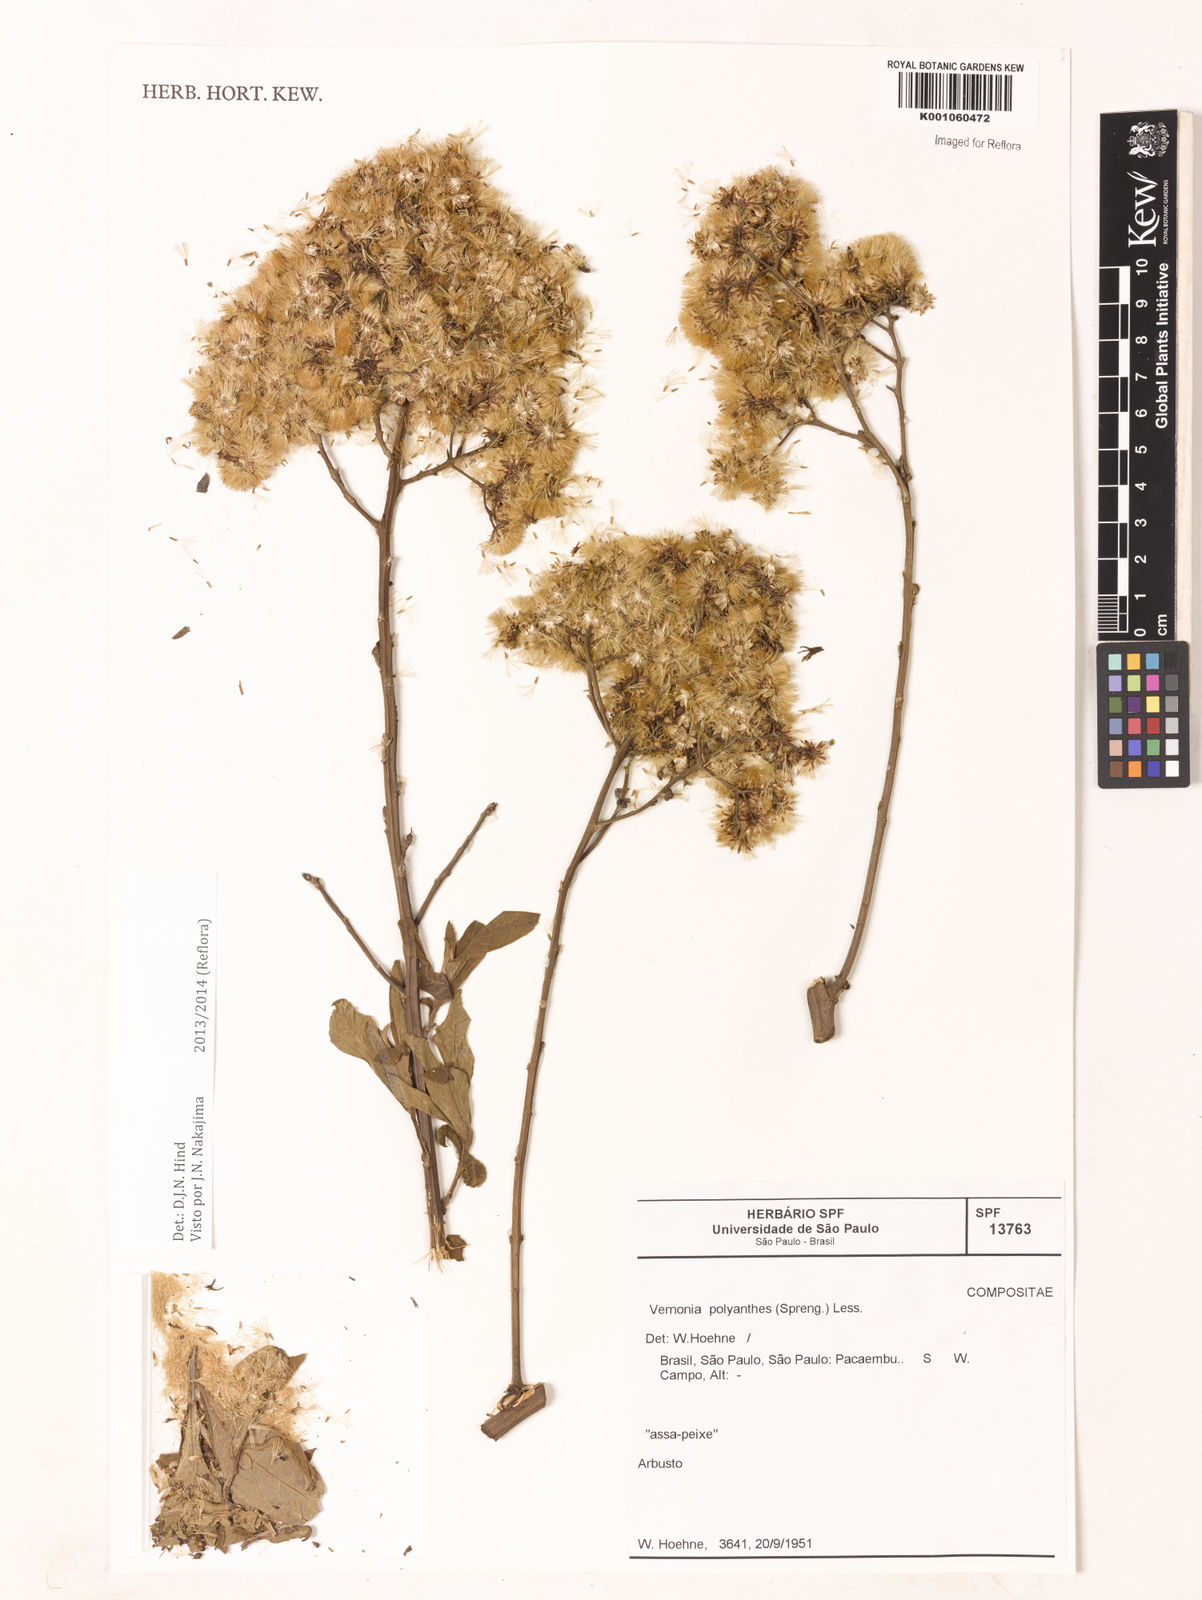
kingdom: Plantae
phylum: Tracheophyta
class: Magnoliopsida
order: Asterales
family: Asteraceae
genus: Vernonanthura
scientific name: Vernonanthura polyanthes
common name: Tree aster
